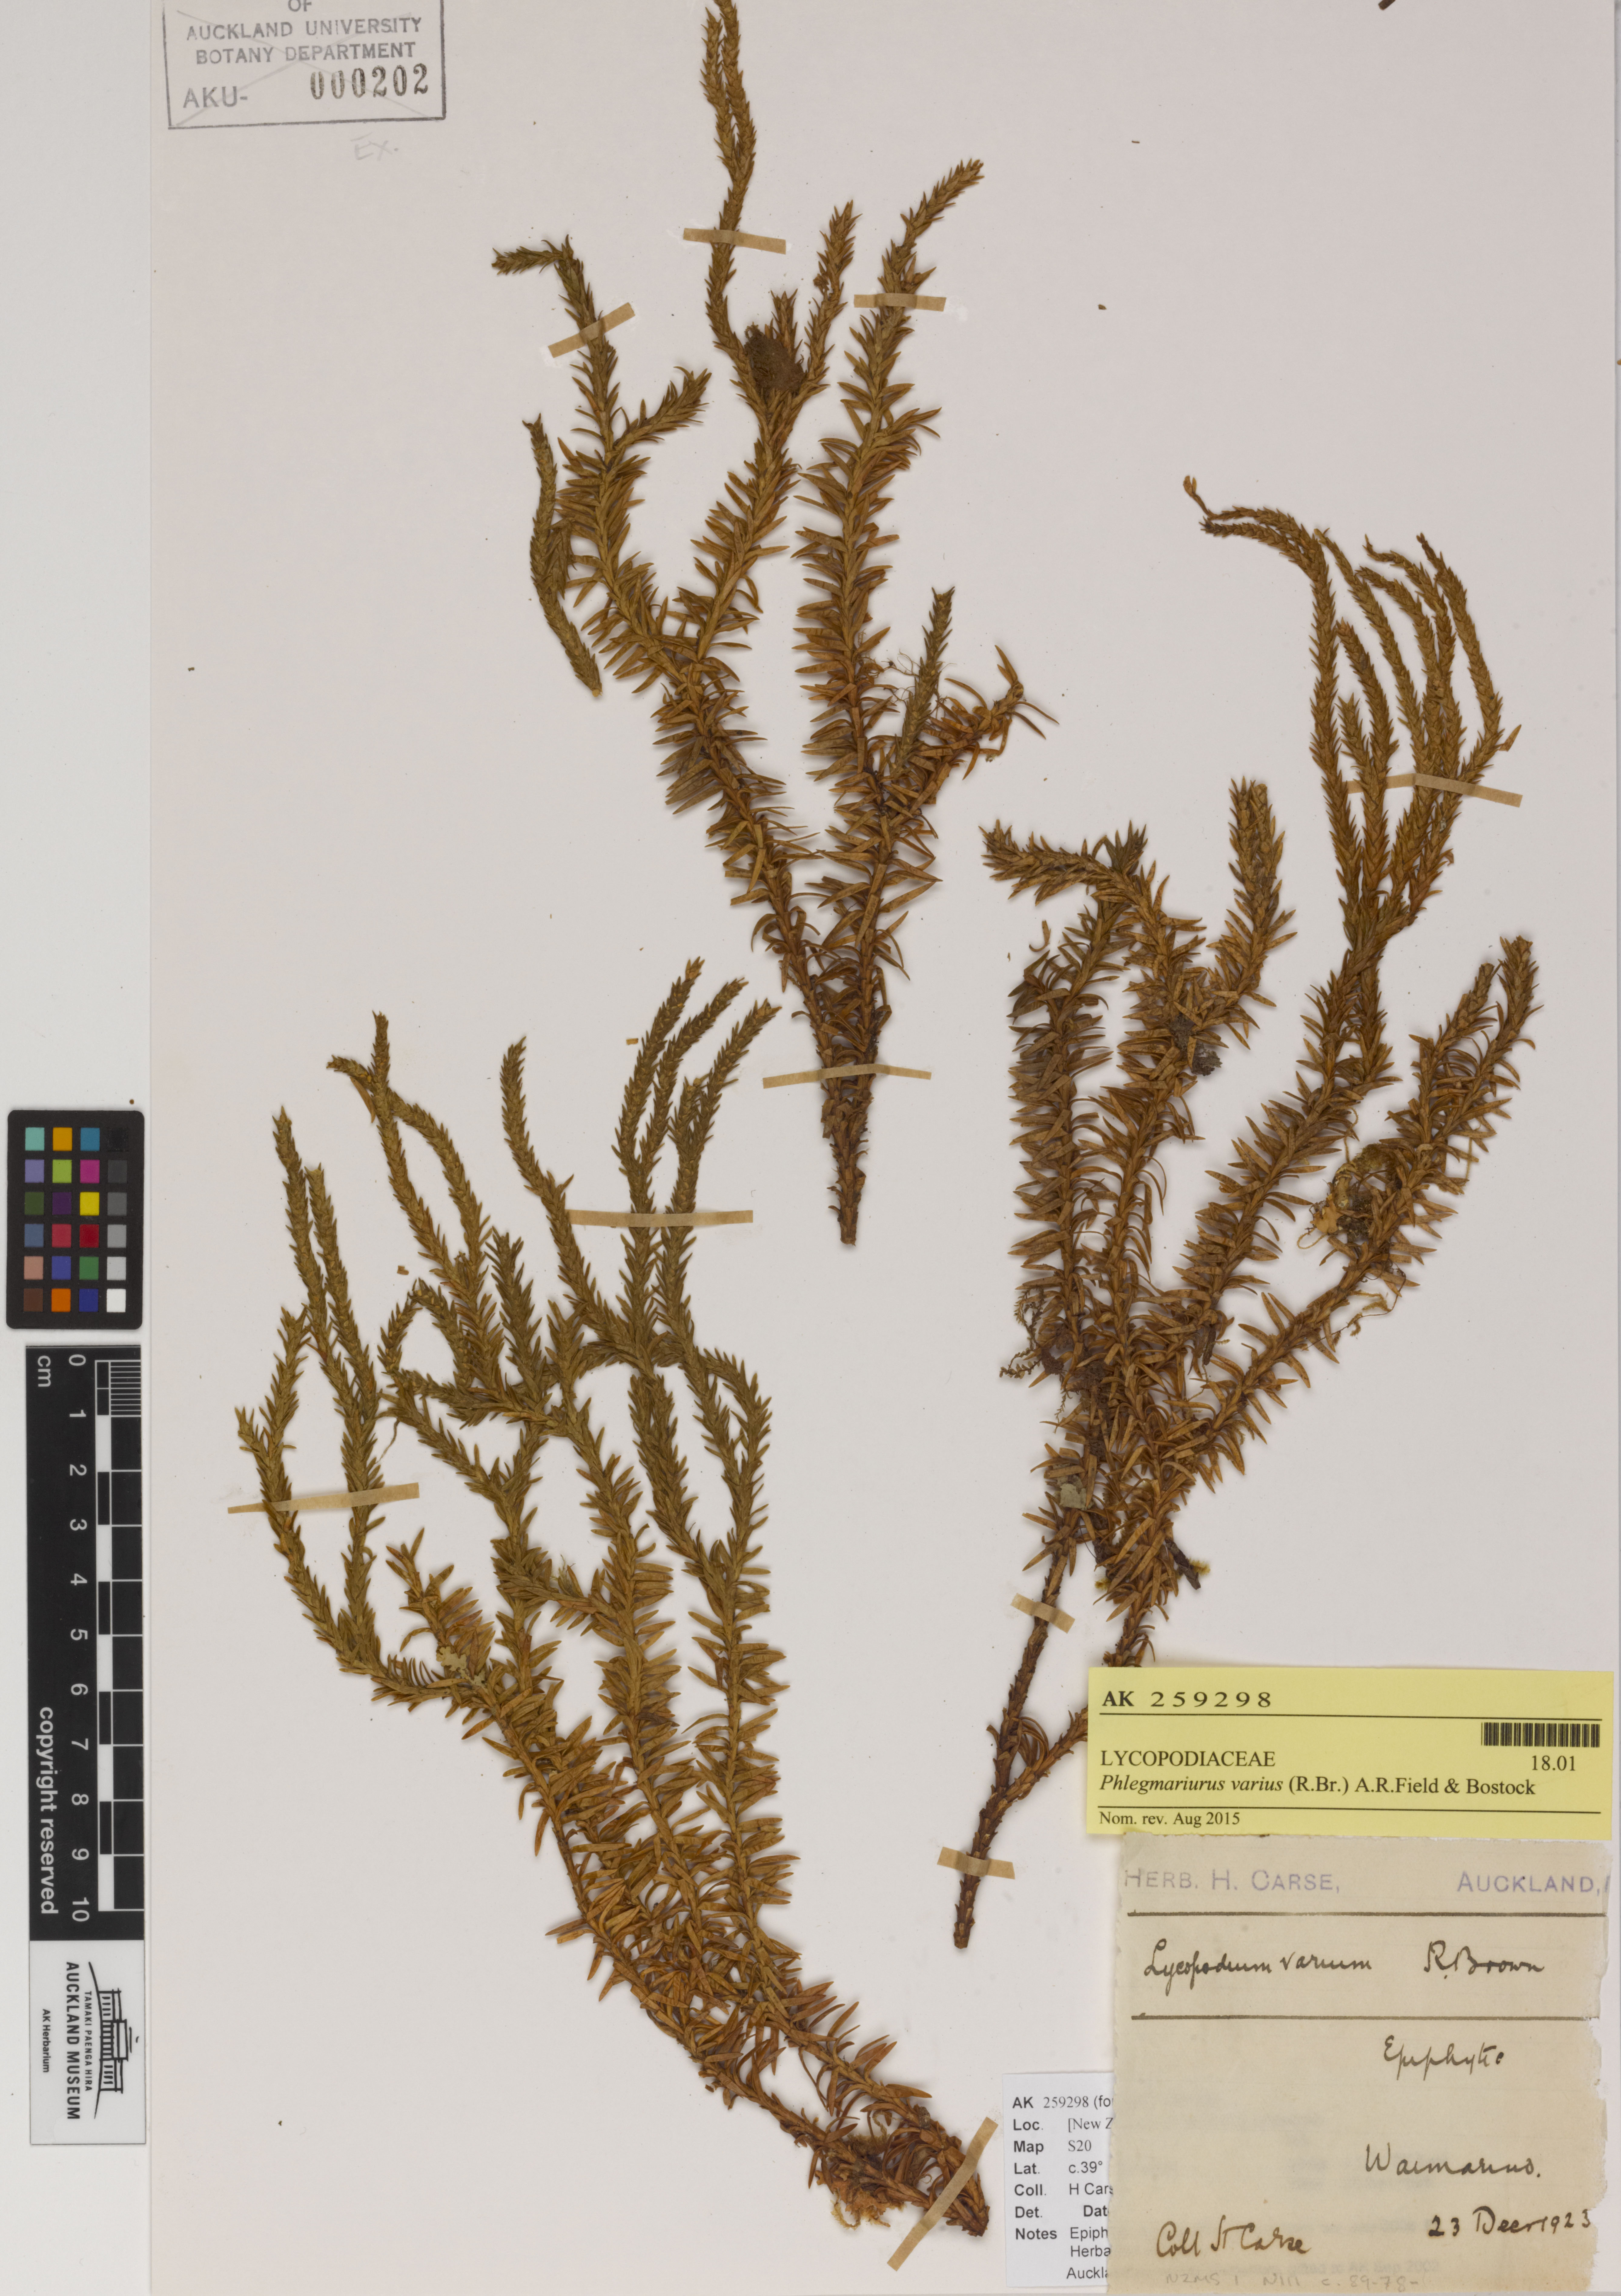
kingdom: Plantae
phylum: Tracheophyta
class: Lycopodiopsida
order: Lycopodiales
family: Lycopodiaceae
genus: Phlegmariurus
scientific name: Phlegmariurus varius
